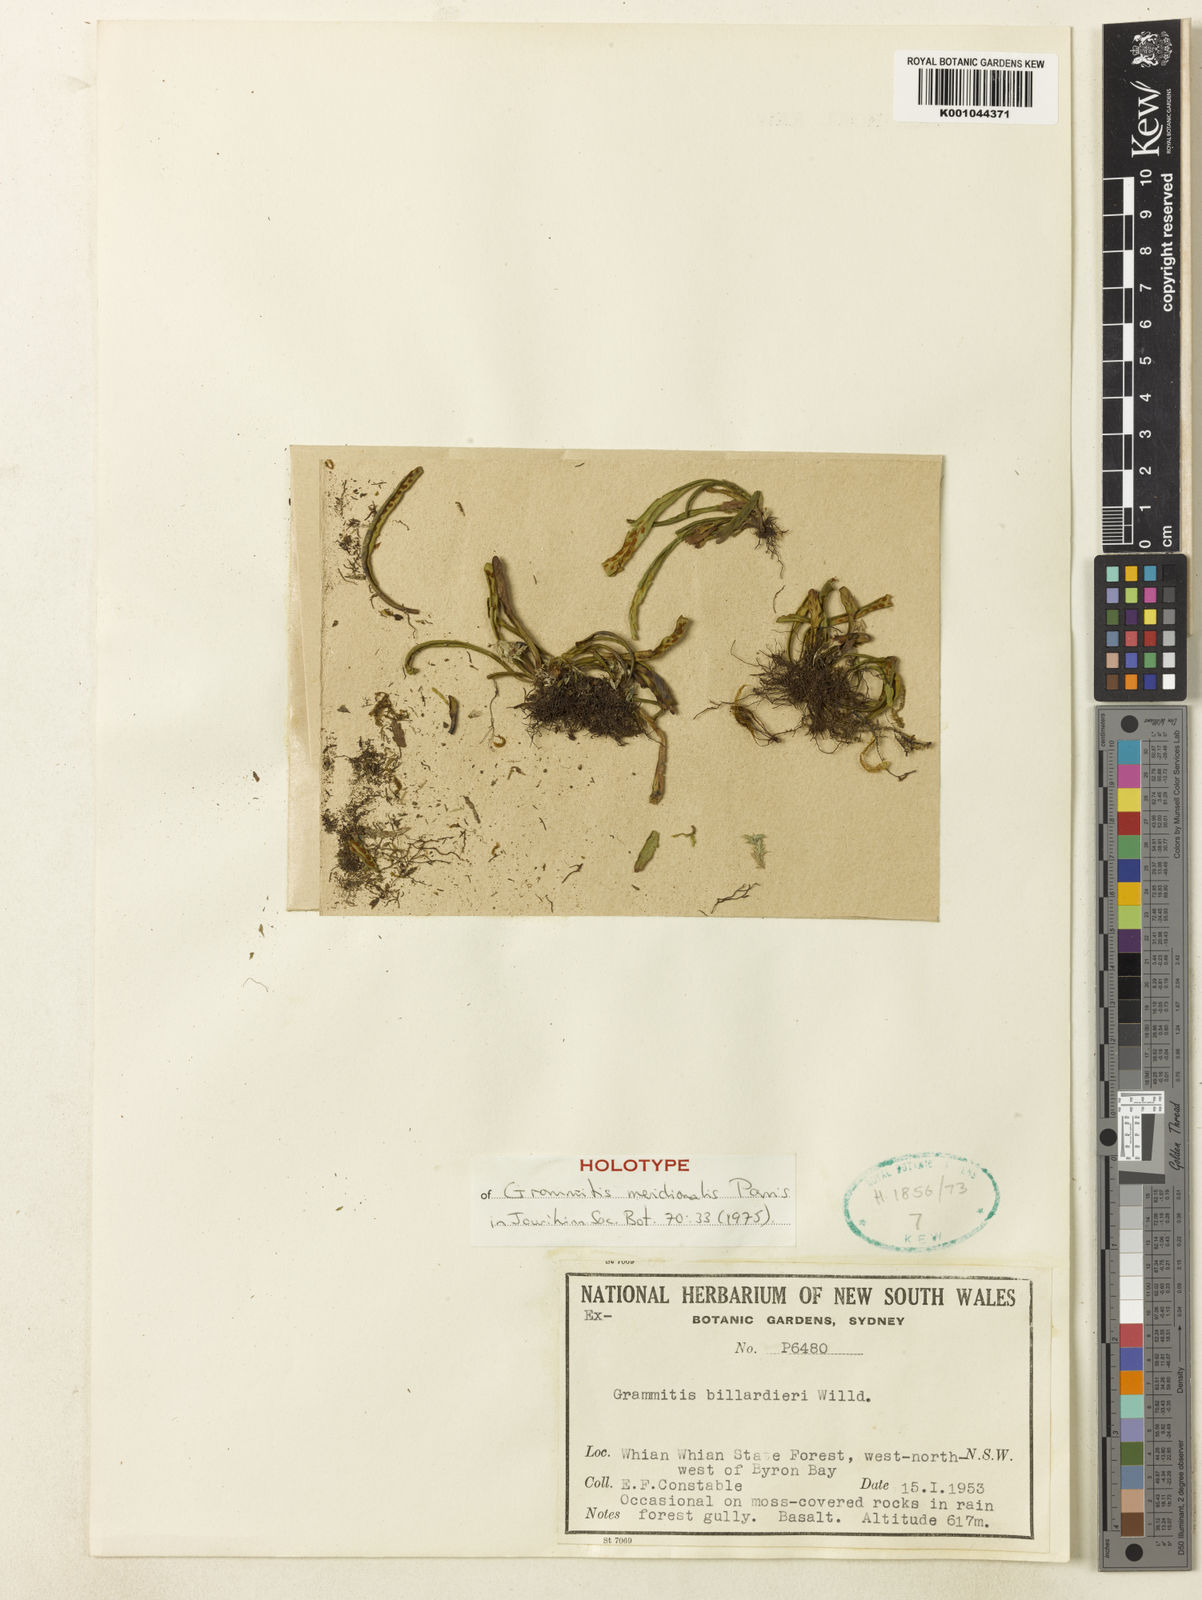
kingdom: Plantae
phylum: Tracheophyta
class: Polypodiopsida
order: Polypodiales
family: Polypodiaceae
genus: Notogrammitis
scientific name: Notogrammitis billardierei
